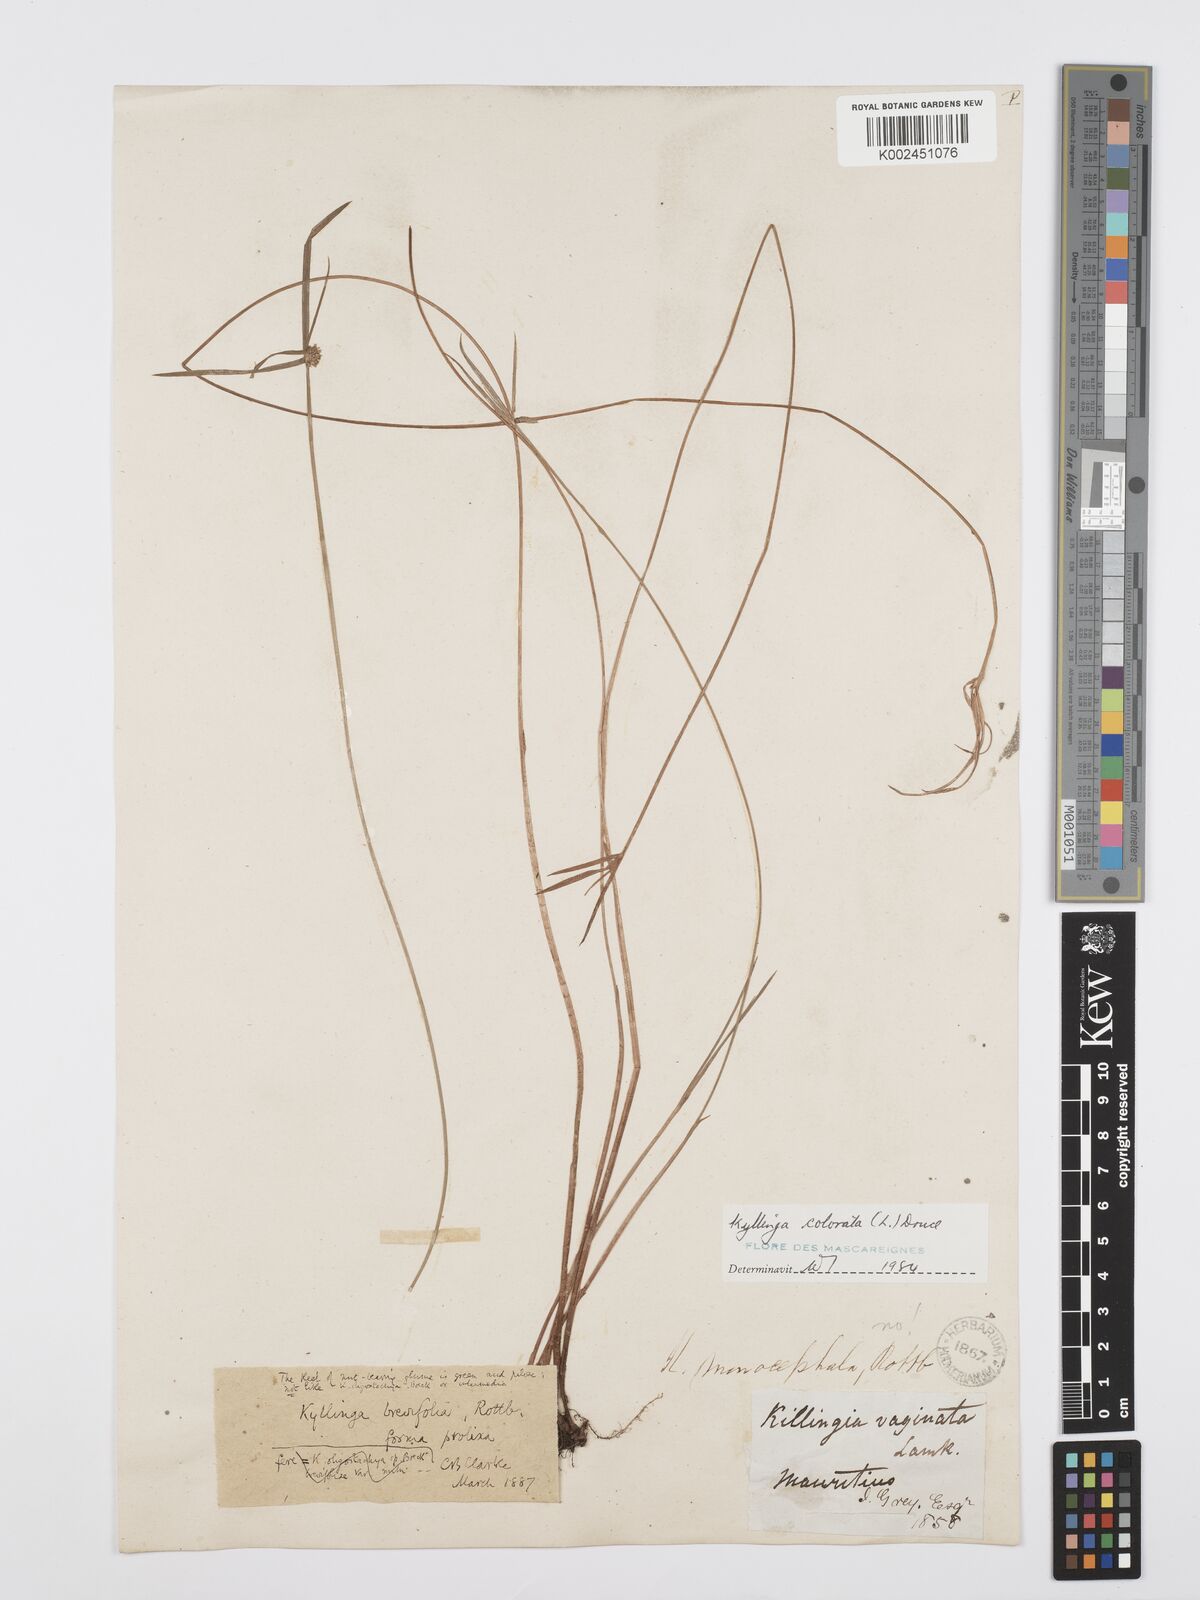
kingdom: Plantae
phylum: Tracheophyta
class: Liliopsida
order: Poales
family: Cyperaceae
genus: Cyperus
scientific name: Cyperus brevifolius
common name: Globe kyllinga
